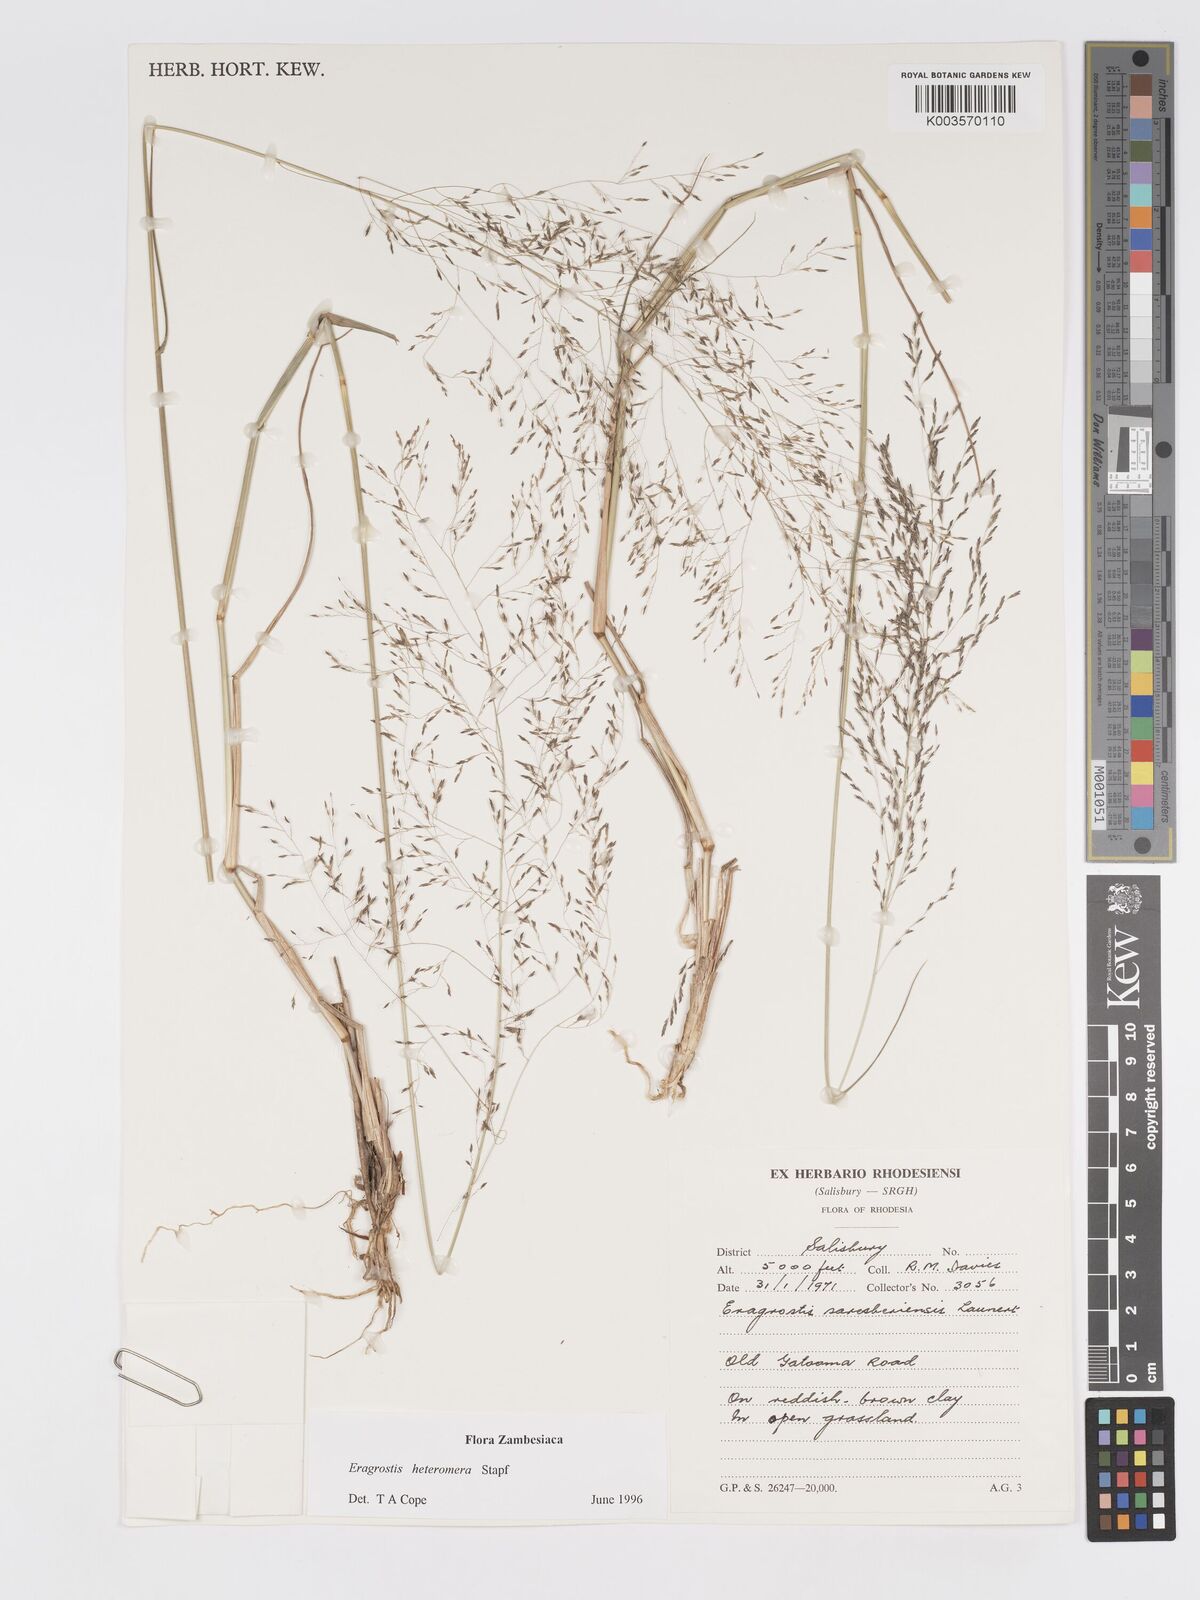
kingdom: Plantae
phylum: Tracheophyta
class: Liliopsida
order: Poales
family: Poaceae
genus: Eragrostis
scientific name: Eragrostis heteromera
